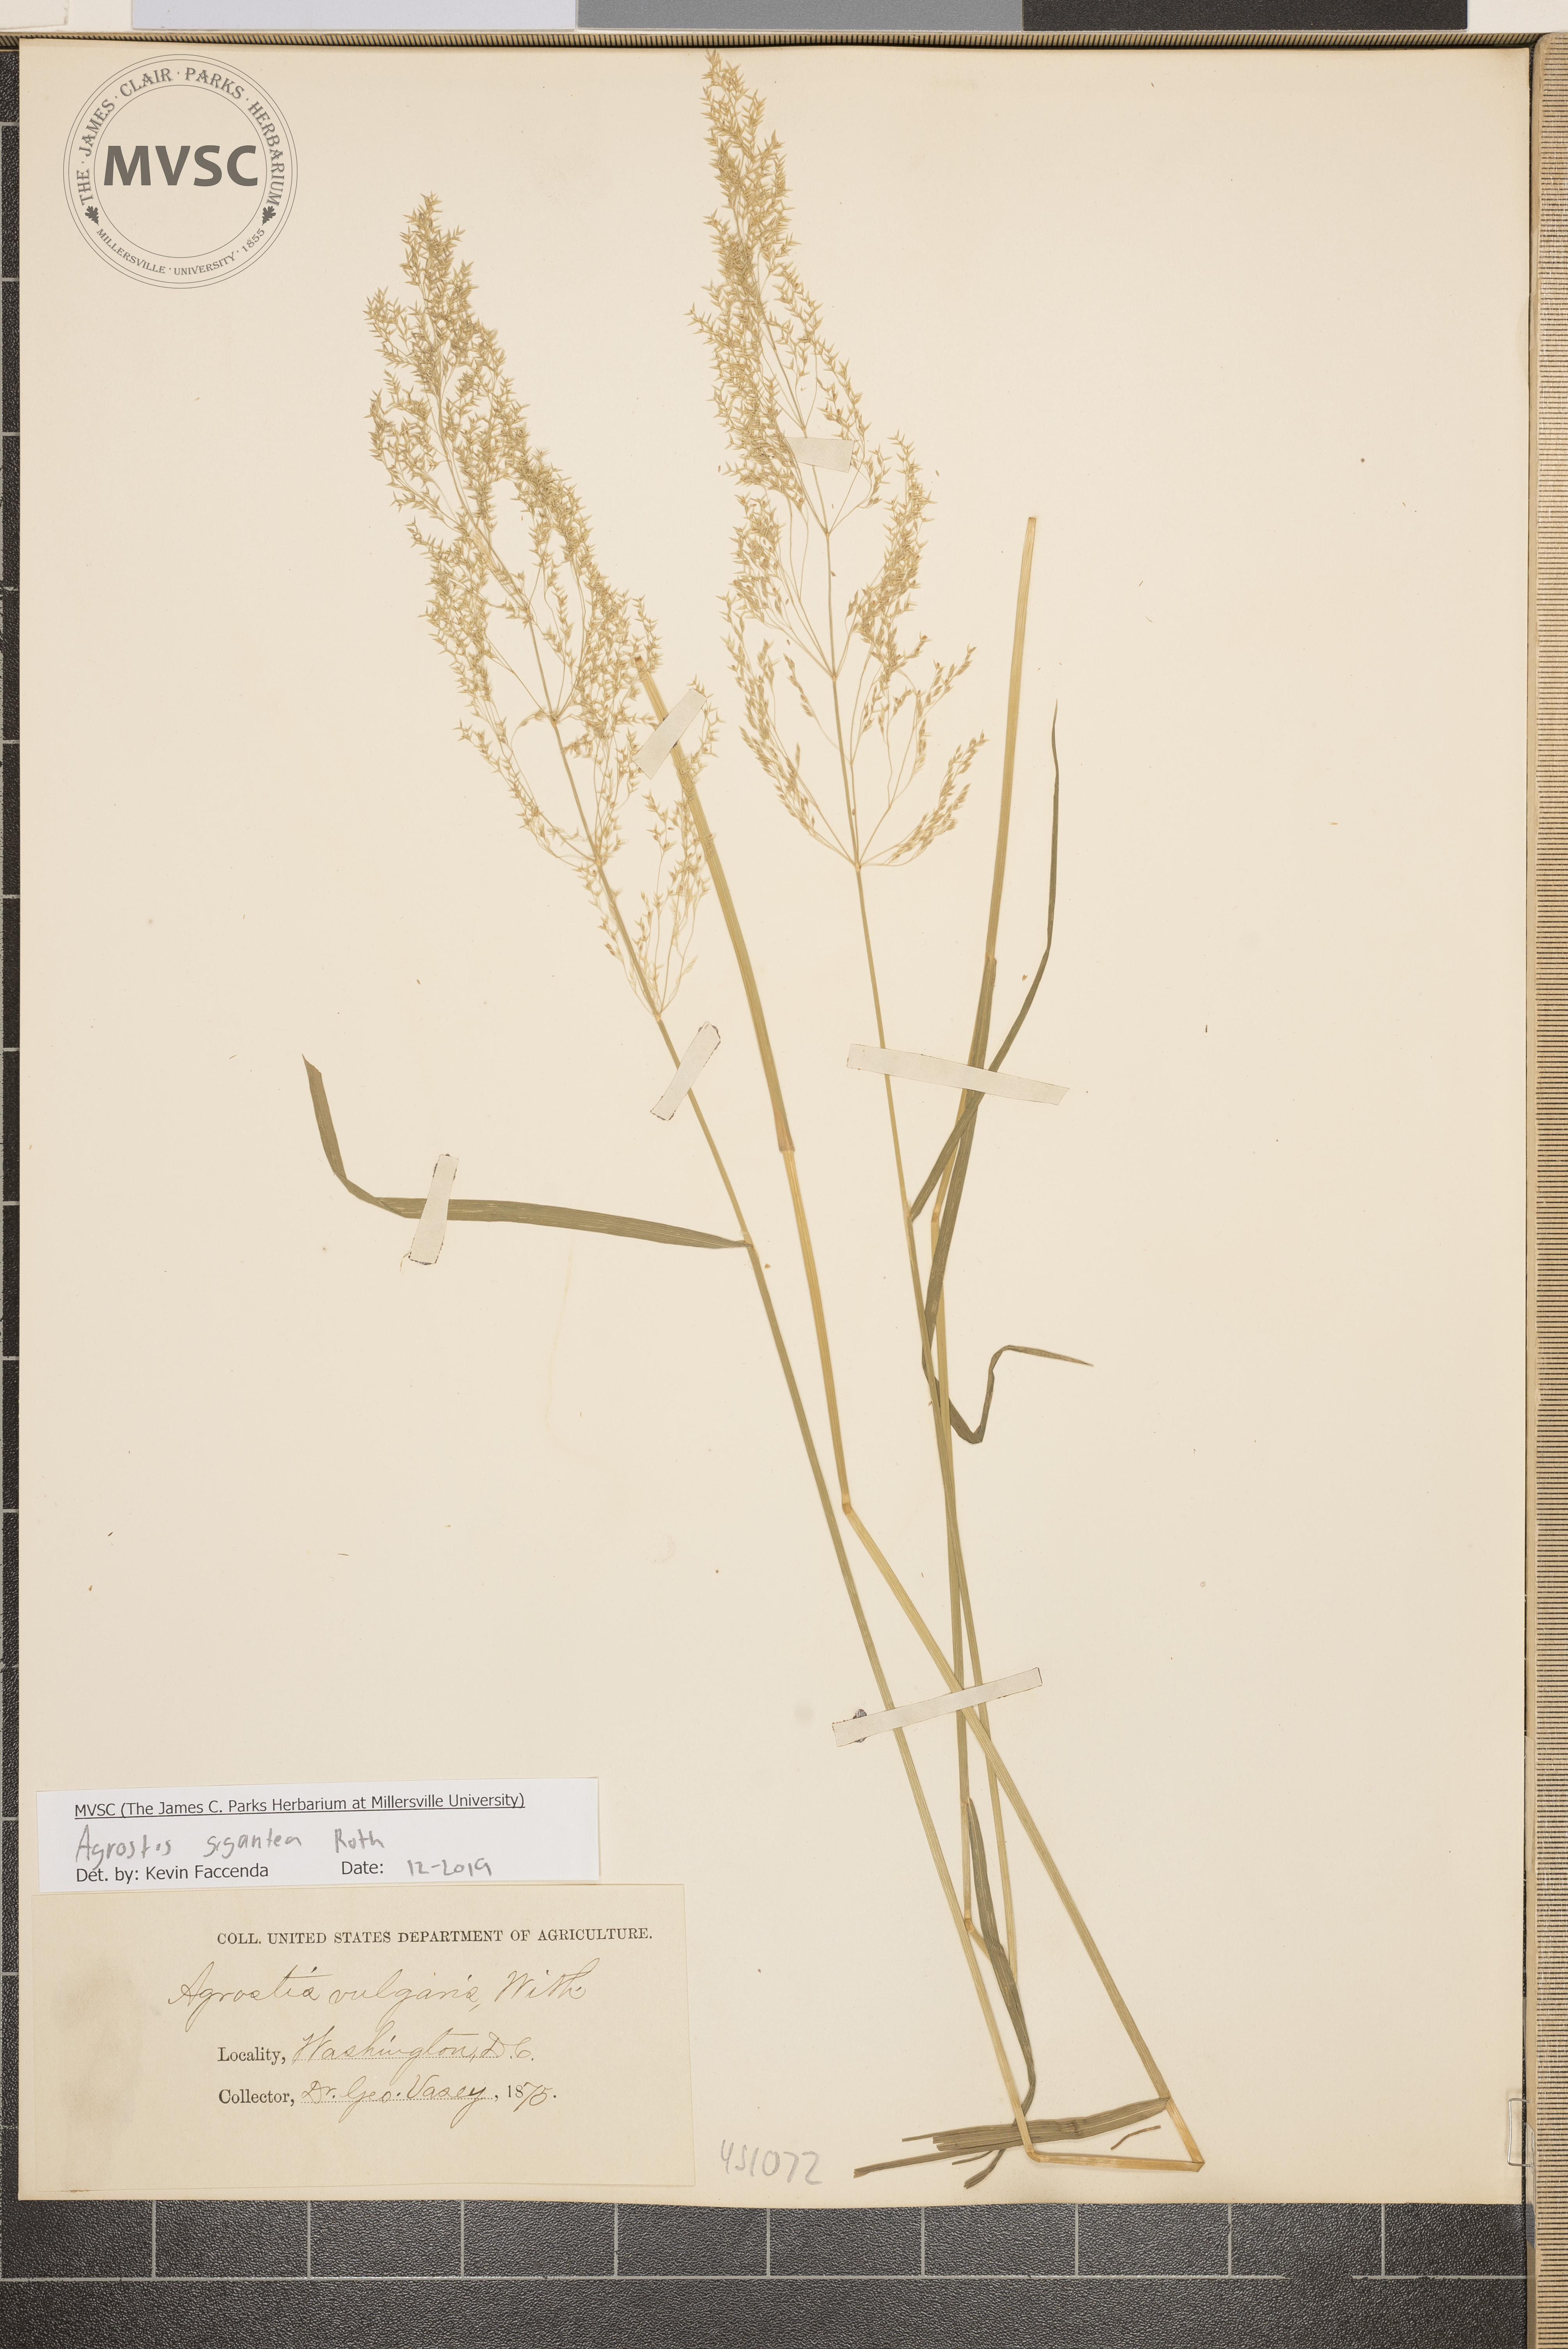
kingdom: Plantae
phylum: Tracheophyta
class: Liliopsida
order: Poales
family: Poaceae
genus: Agrostis
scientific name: Agrostis gigantea
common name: Black bent
